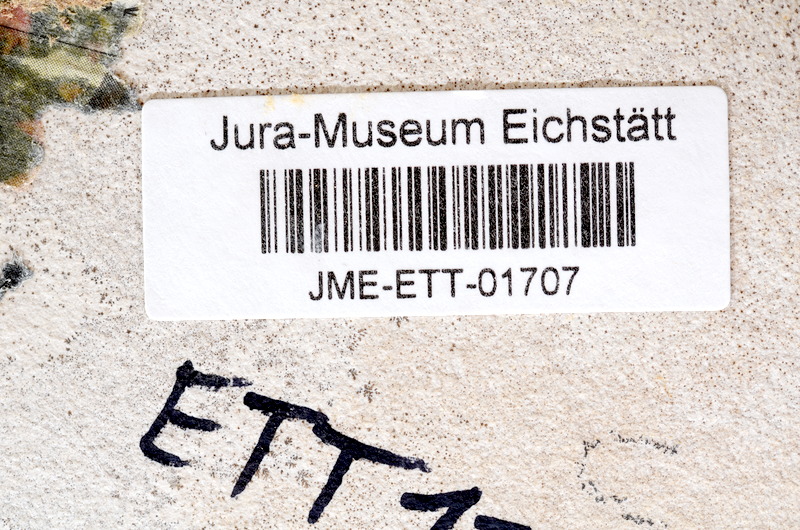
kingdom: Animalia
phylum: Chordata
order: Salmoniformes
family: Orthogonikleithridae
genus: Orthogonikleithrus
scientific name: Orthogonikleithrus hoelli
